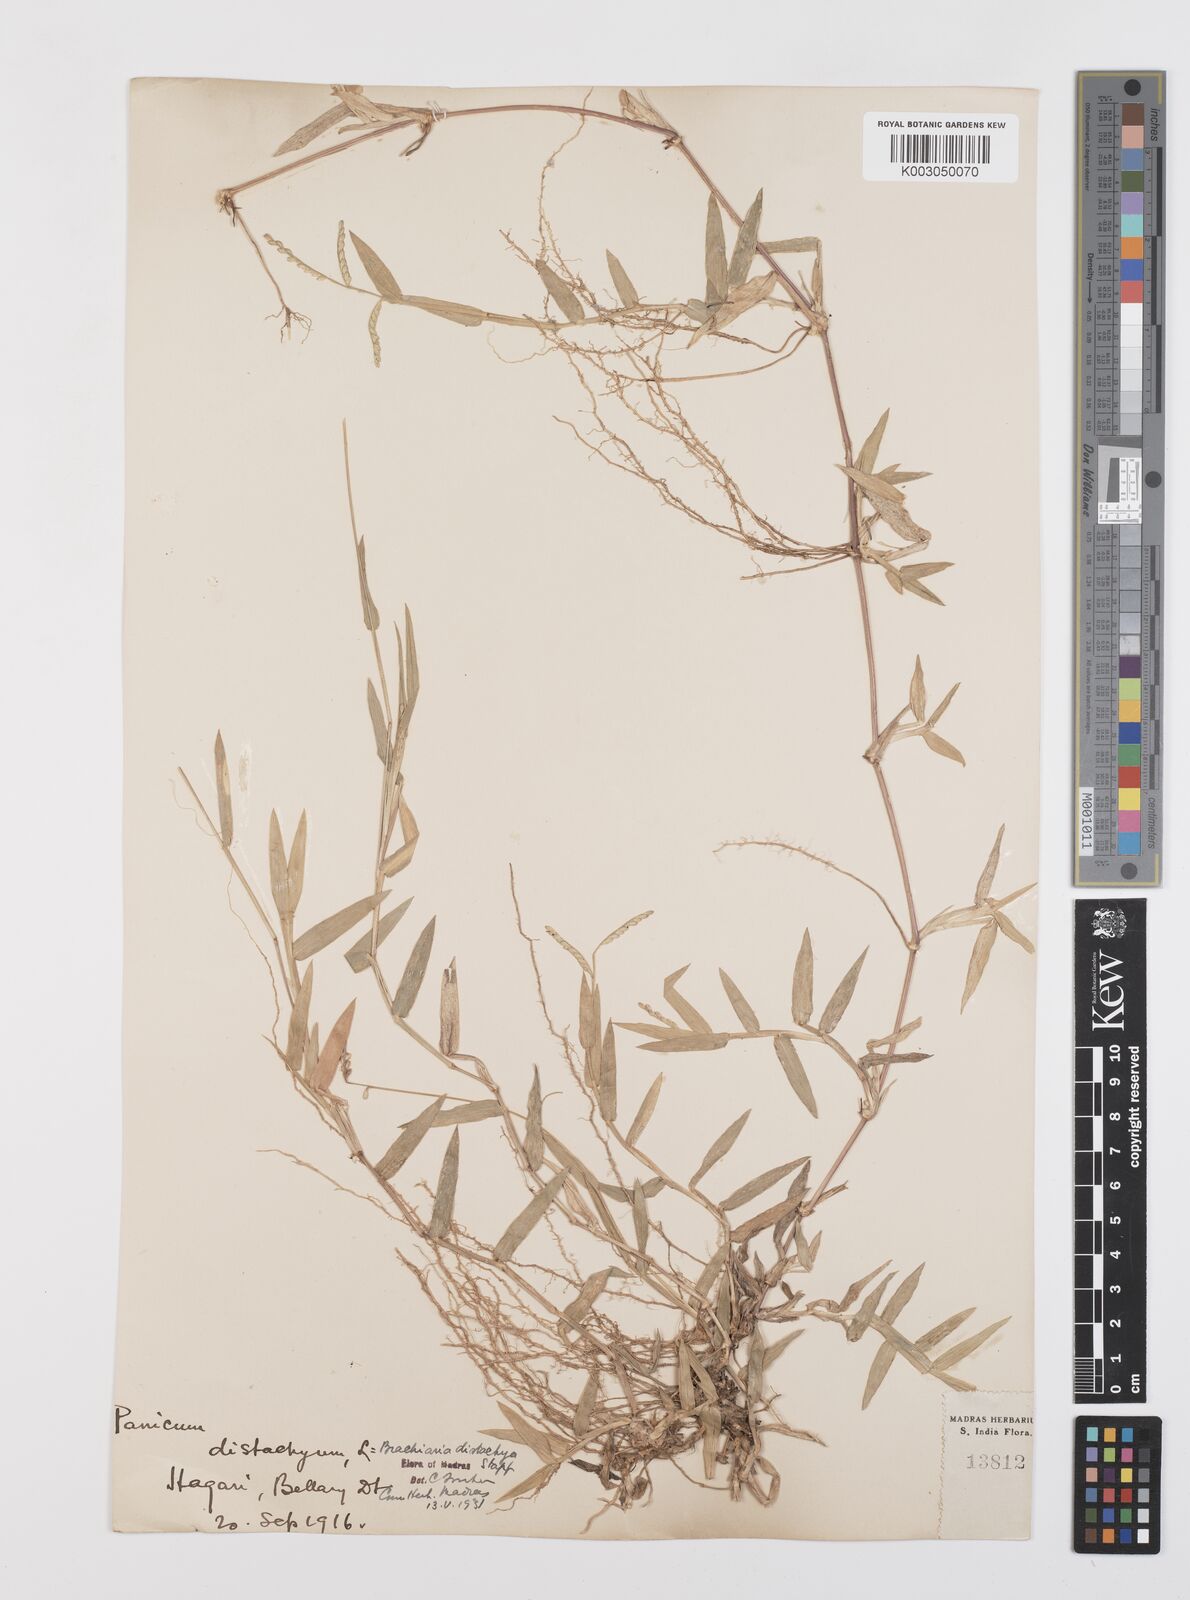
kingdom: Plantae
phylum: Tracheophyta
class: Liliopsida
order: Poales
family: Poaceae
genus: Urochloa
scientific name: Urochloa distachyos
